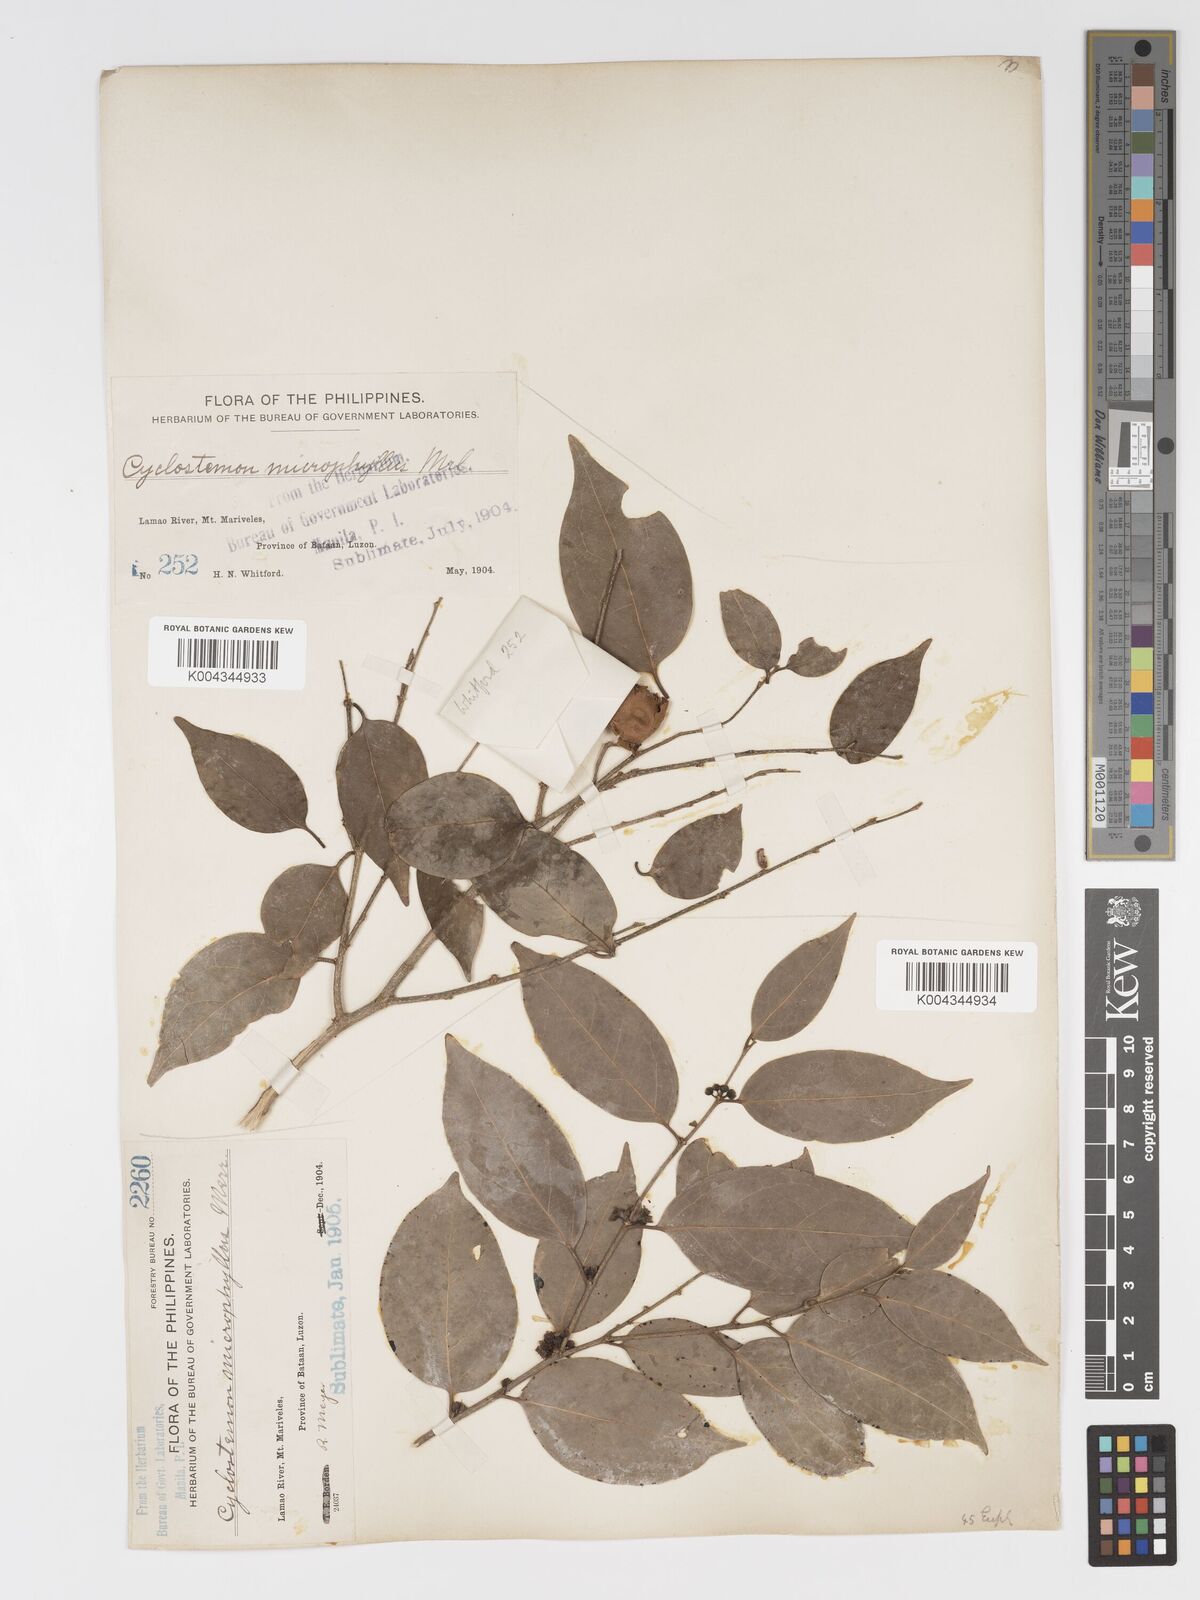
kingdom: Plantae
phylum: Tracheophyta
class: Magnoliopsida
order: Malpighiales
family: Putranjivaceae
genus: Drypetes
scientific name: Drypetes microphylla
